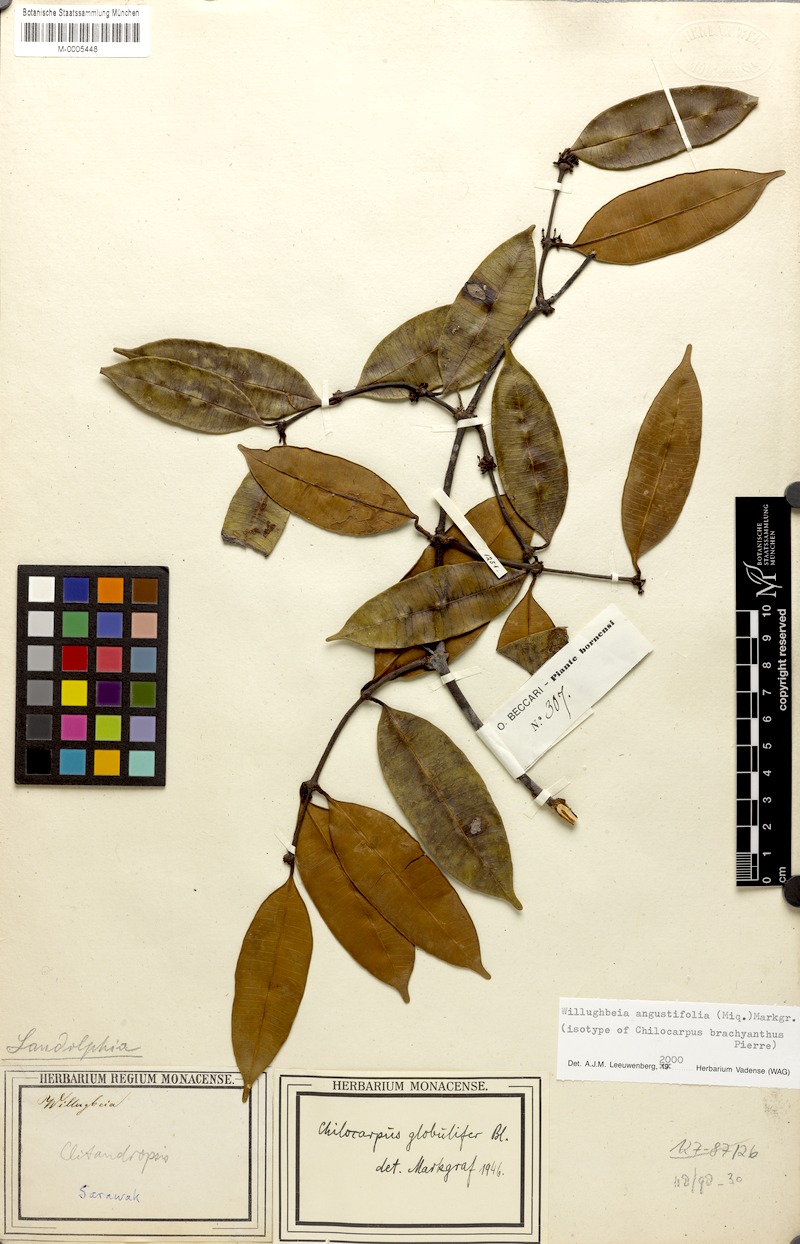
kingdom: Plantae
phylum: Tracheophyta
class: Magnoliopsida
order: Gentianales
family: Apocynaceae
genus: Willughbeia
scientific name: Willughbeia angustifolia
